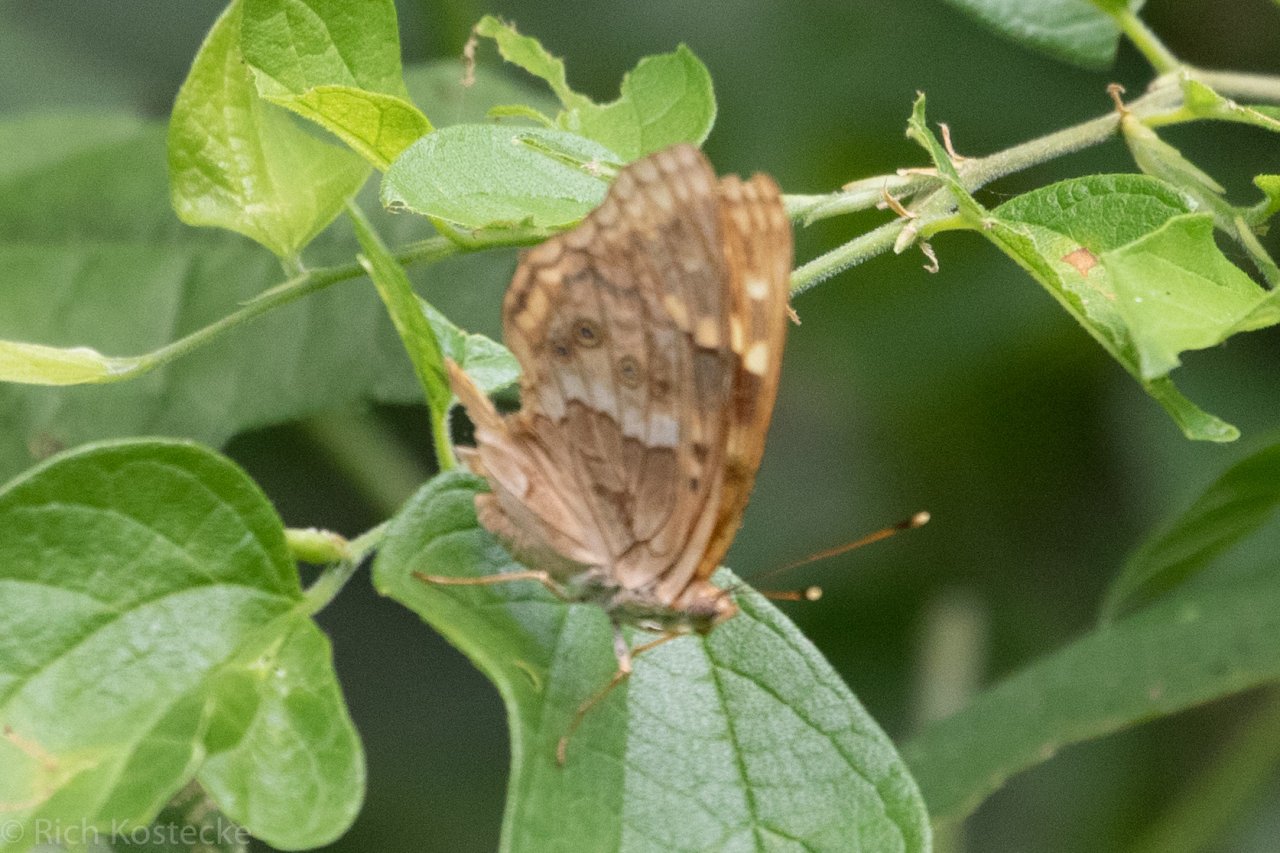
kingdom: Animalia
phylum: Arthropoda
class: Insecta
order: Lepidoptera
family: Nymphalidae
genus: Asterocampa
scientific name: Asterocampa clyton
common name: Tawny Emperor
